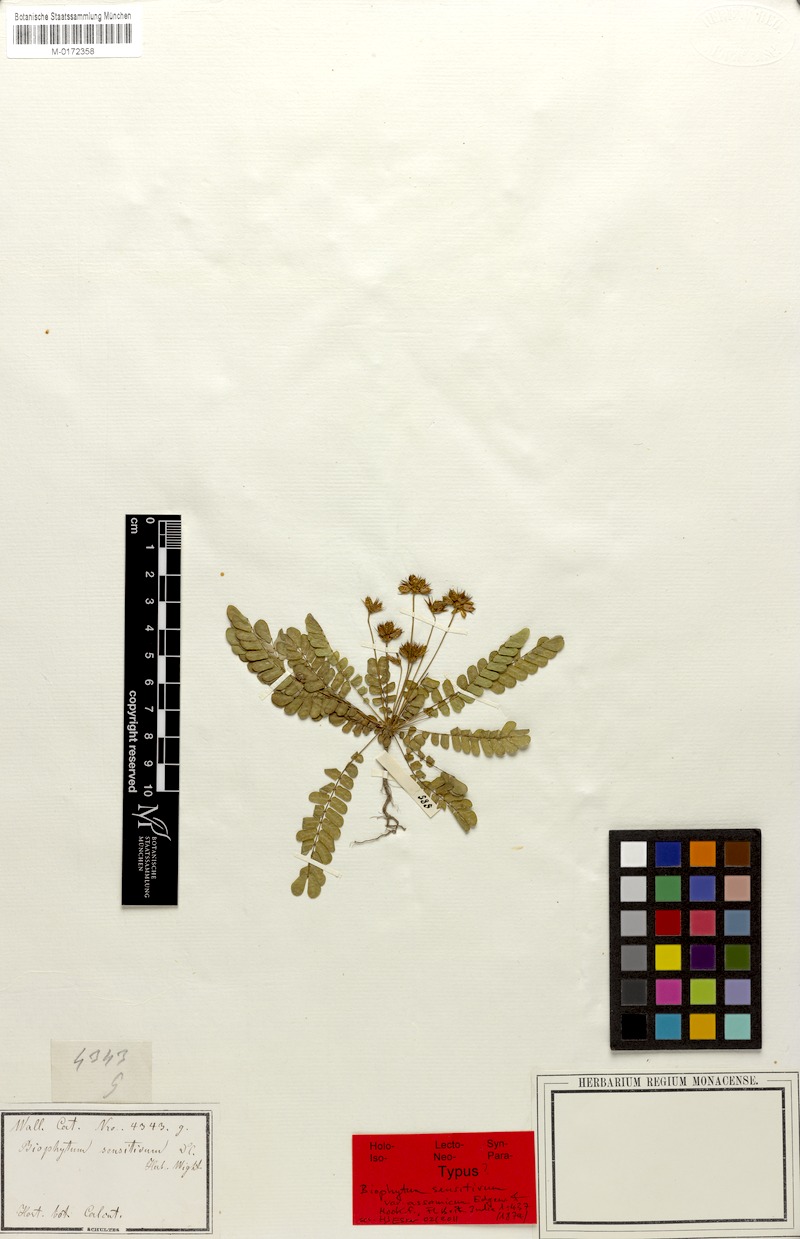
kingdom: Plantae
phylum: Tracheophyta
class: Magnoliopsida
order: Oxalidales
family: Oxalidaceae
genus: Biophytum
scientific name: Biophytum sensitivum
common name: Lifeplant
